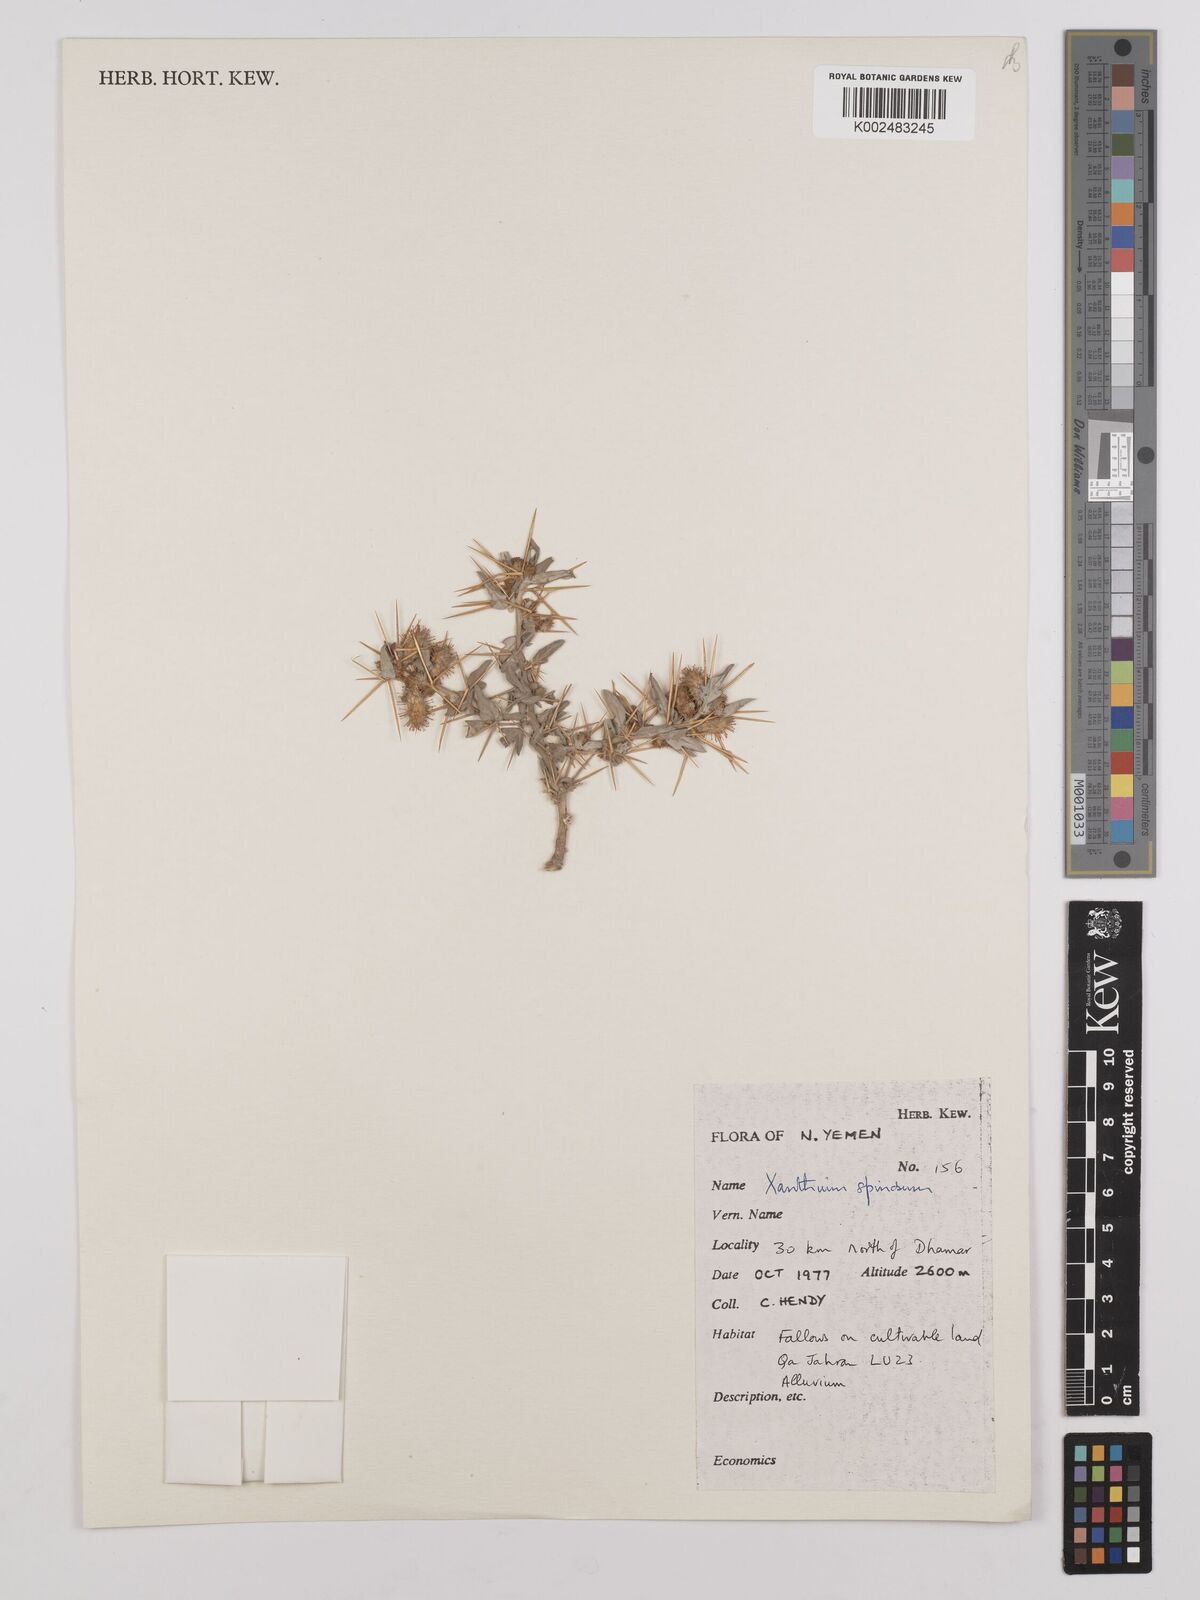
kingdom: Plantae
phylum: Tracheophyta
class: Magnoliopsida
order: Asterales
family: Asteraceae
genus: Xanthium
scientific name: Xanthium spinosum
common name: Spiny cocklebur
